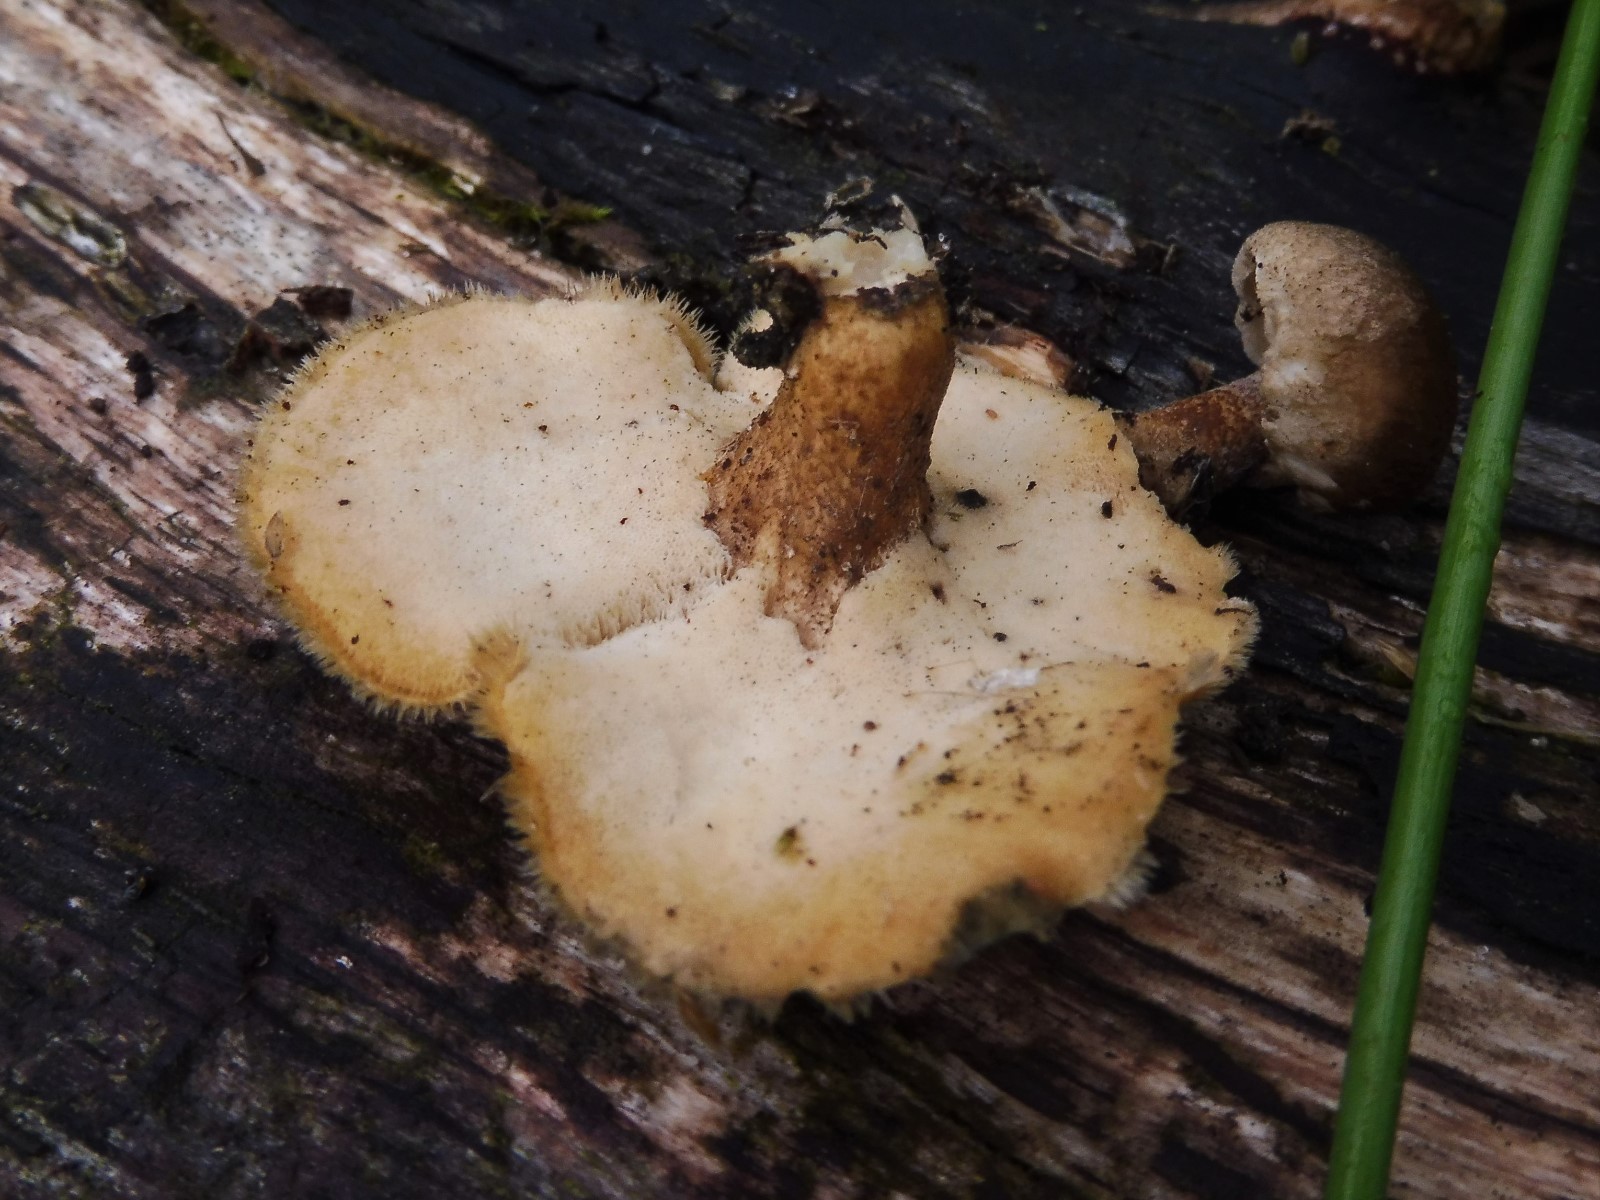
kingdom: Fungi
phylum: Basidiomycota
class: Agaricomycetes
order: Polyporales
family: Polyporaceae
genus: Lentinus
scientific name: Lentinus substrictus
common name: forårs-stilkporesvamp
